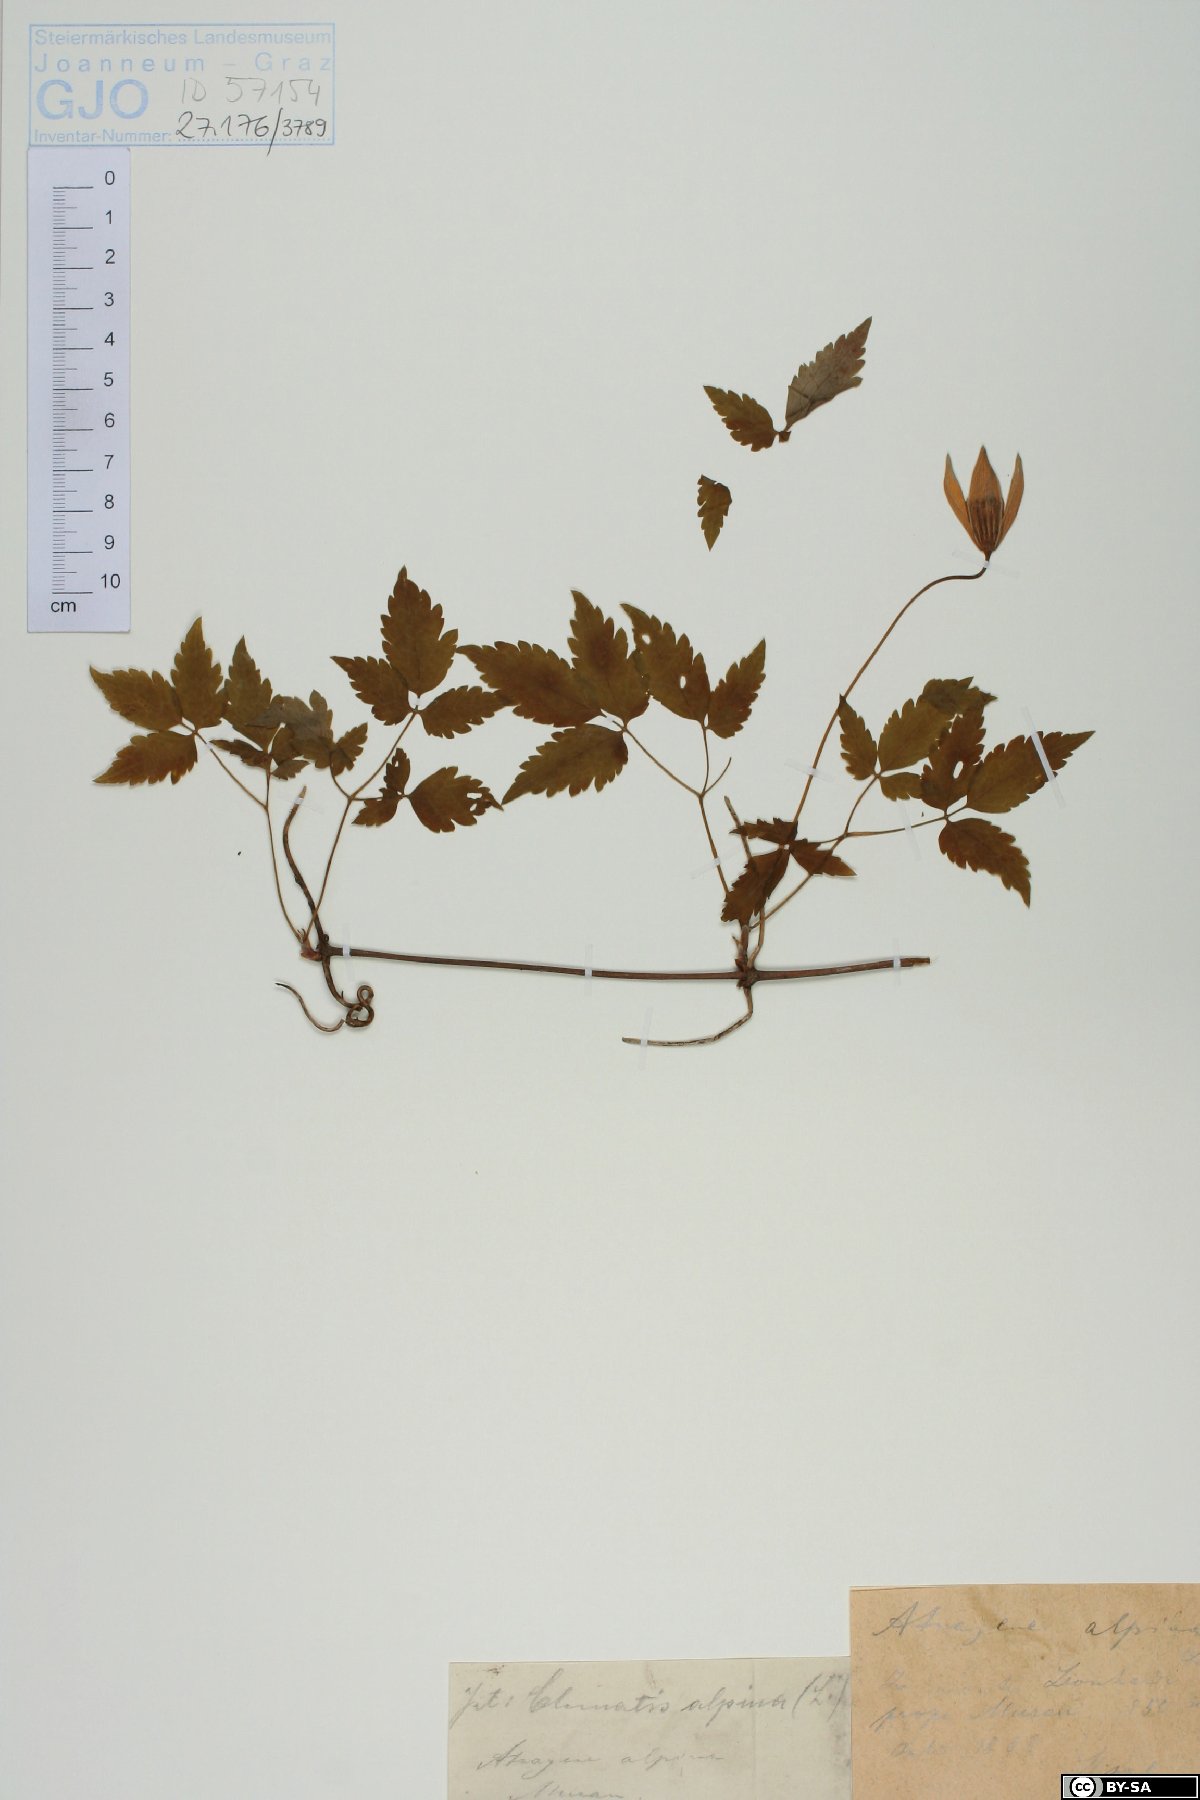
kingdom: Plantae
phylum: Tracheophyta
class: Magnoliopsida
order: Ranunculales
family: Ranunculaceae
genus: Clematis
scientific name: Clematis alpina
